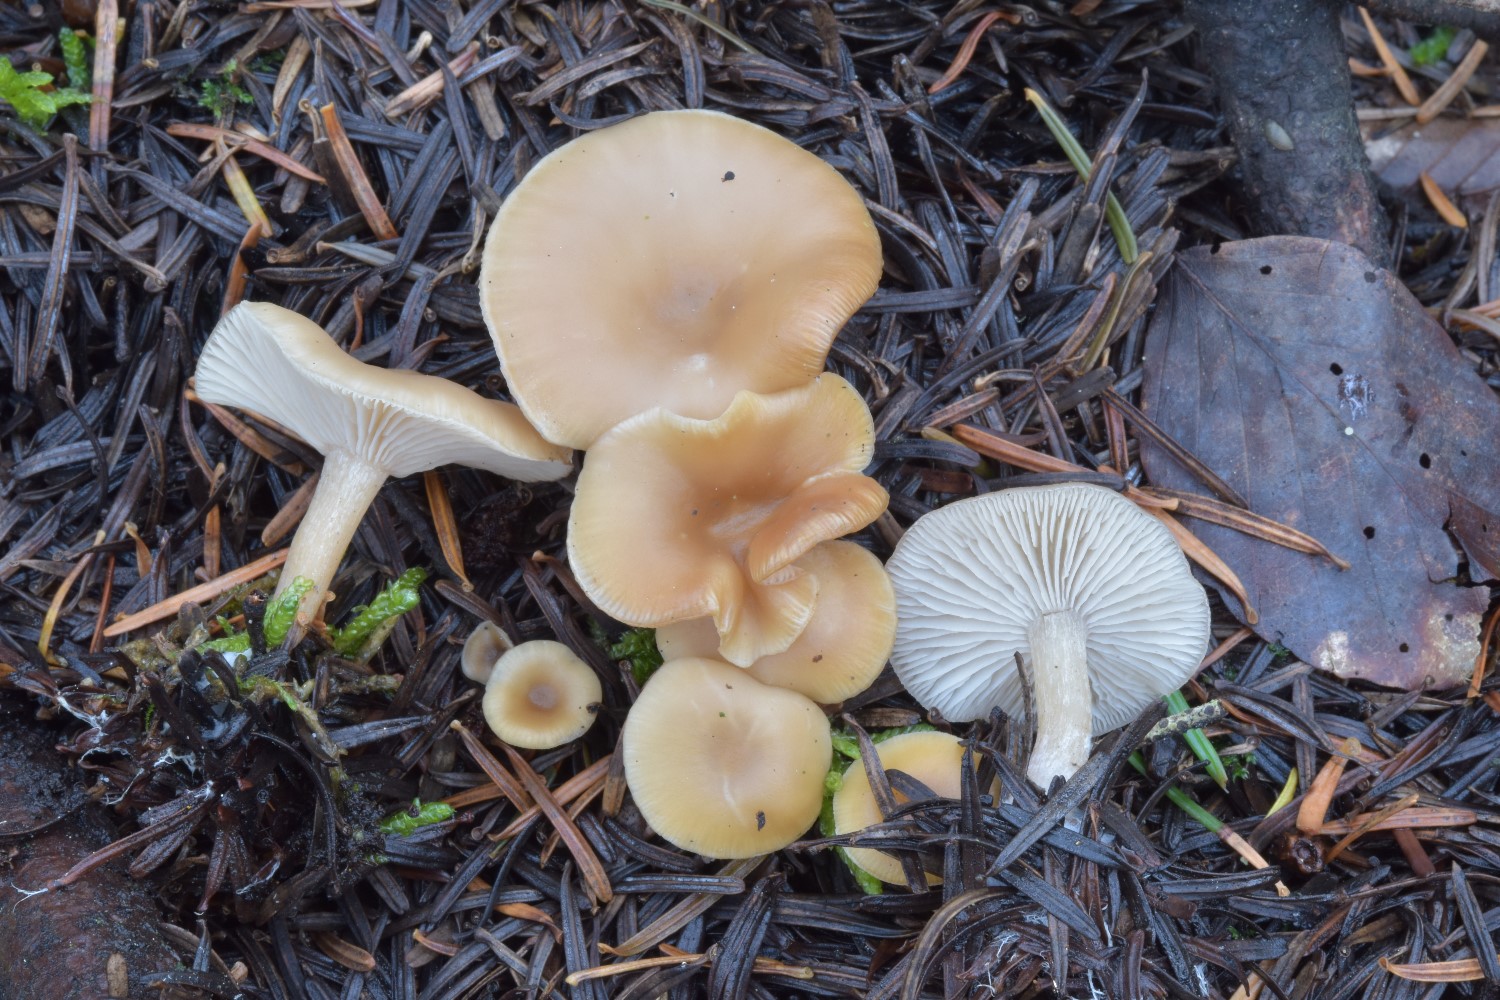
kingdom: Fungi
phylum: Basidiomycota
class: Agaricomycetes
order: Agaricales
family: Tricholomataceae
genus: Clitocybe
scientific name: Clitocybe fragrans
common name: vellugtende tragthat
